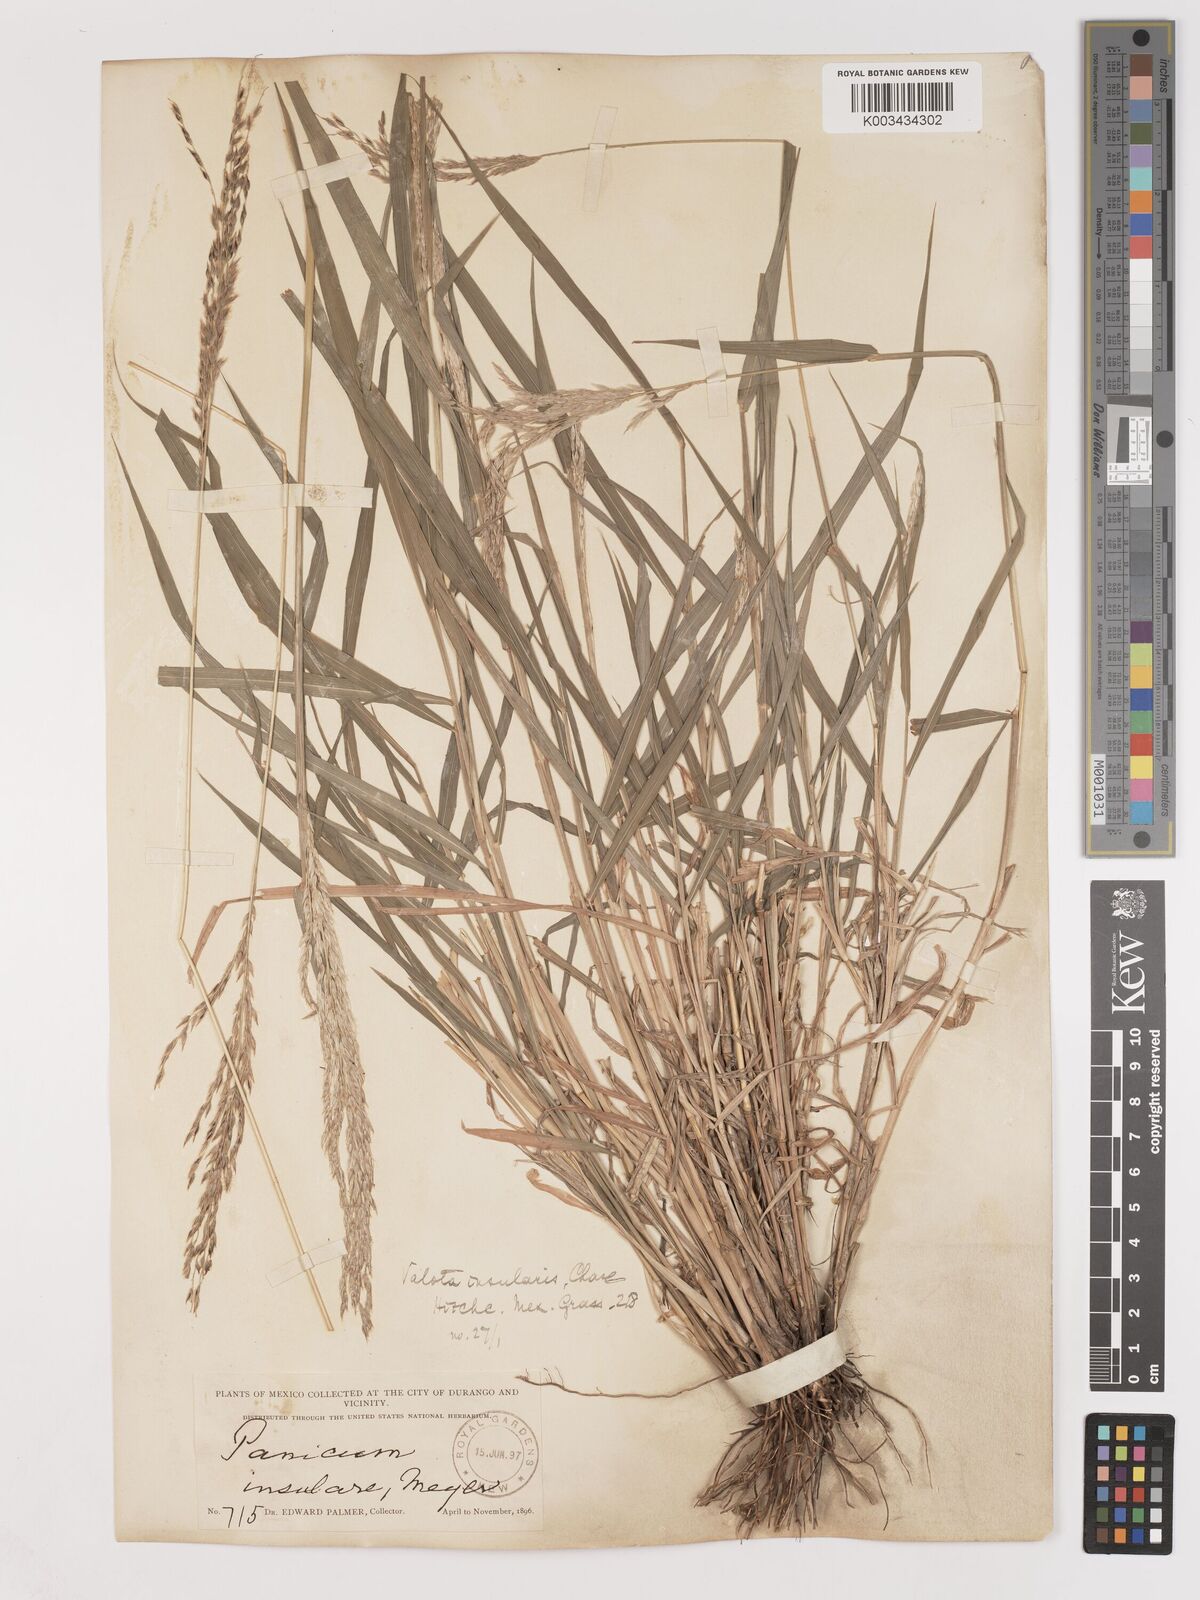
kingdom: Plantae
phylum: Tracheophyta
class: Liliopsida
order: Poales
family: Poaceae
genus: Digitaria
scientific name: Digitaria insularis
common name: Sourgrass
